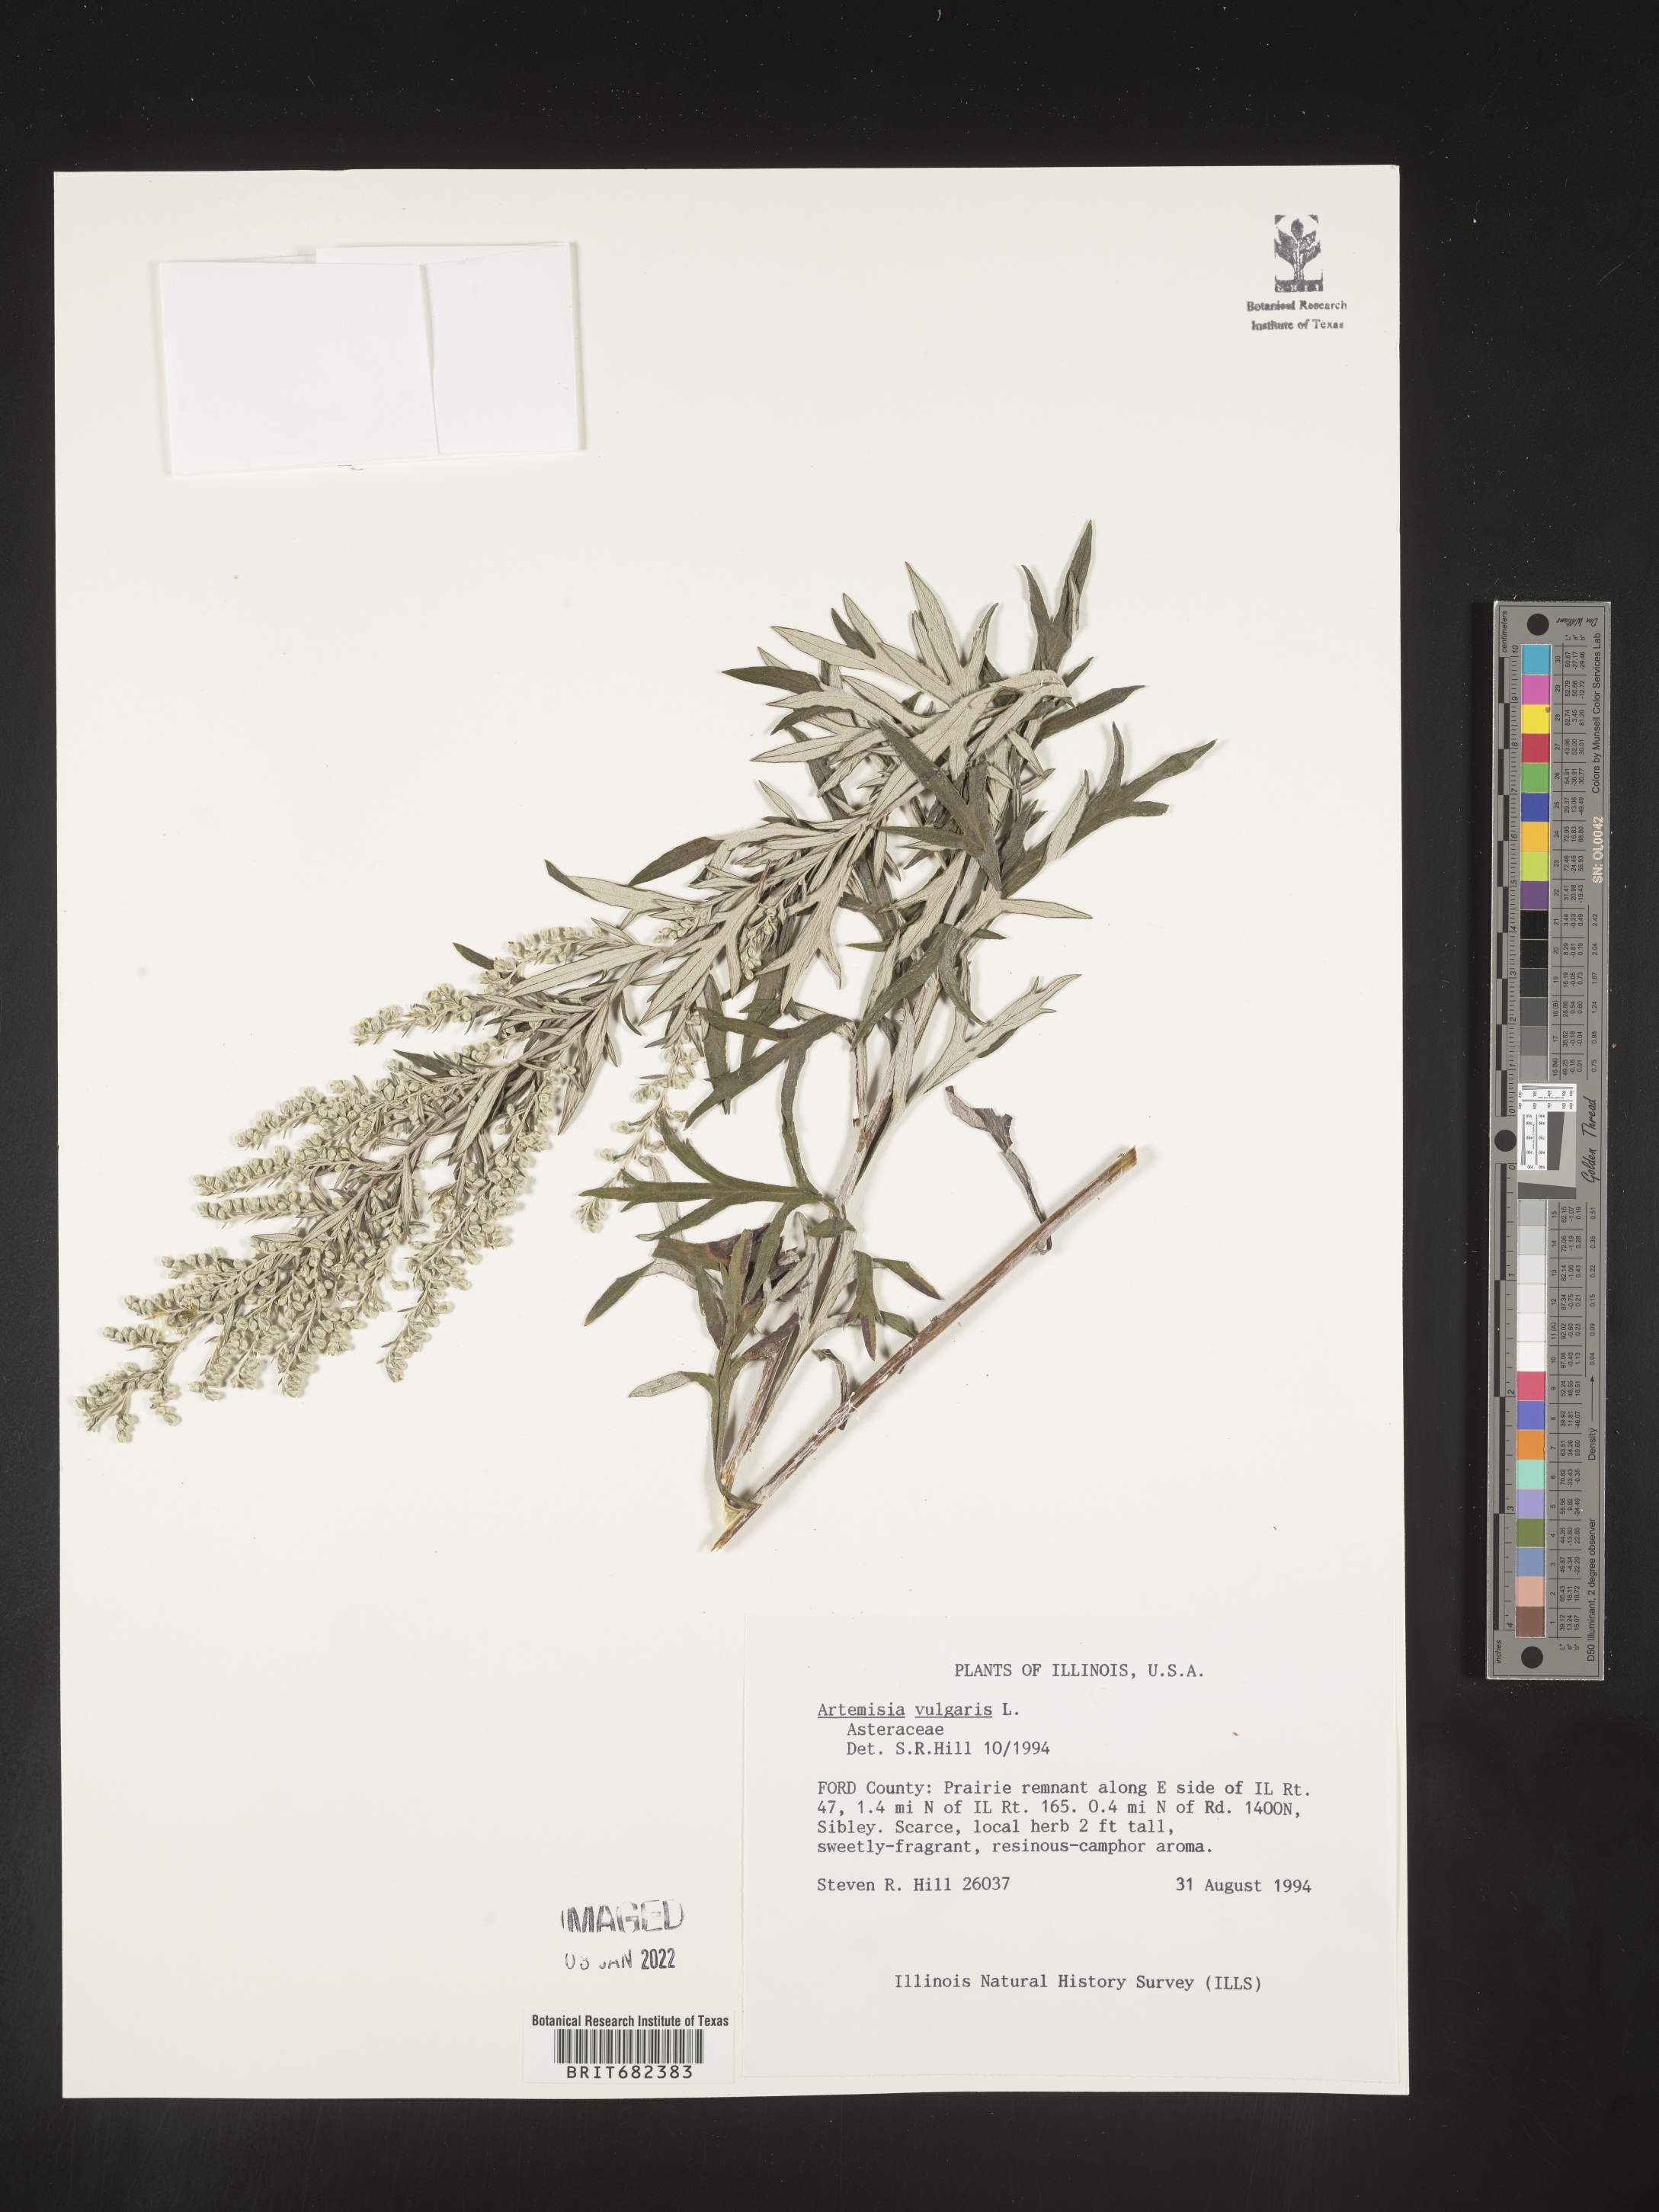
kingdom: Plantae
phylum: Tracheophyta
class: Magnoliopsida
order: Asterales
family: Asteraceae
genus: Artemisia
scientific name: Artemisia vulgaris
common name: Mugwort
